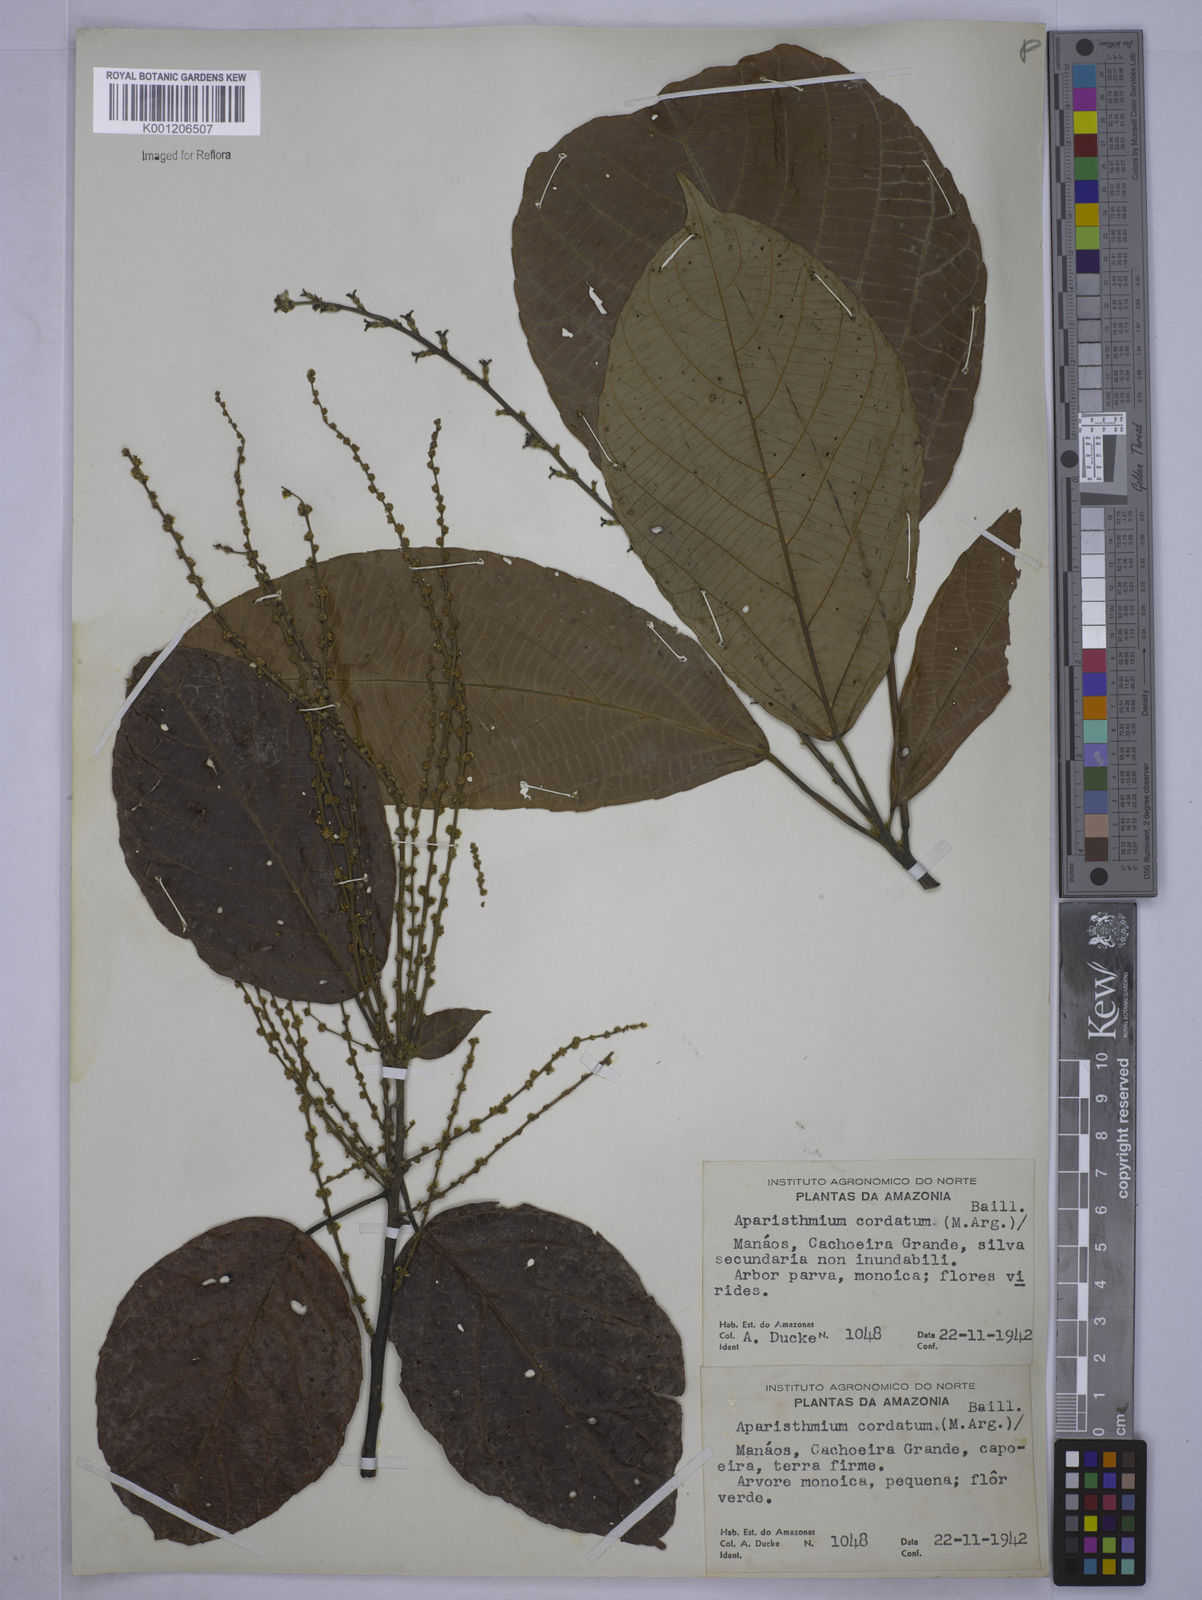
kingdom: Plantae
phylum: Tracheophyta
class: Magnoliopsida
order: Malpighiales
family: Euphorbiaceae
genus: Aparisthmium
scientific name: Aparisthmium cordatum
